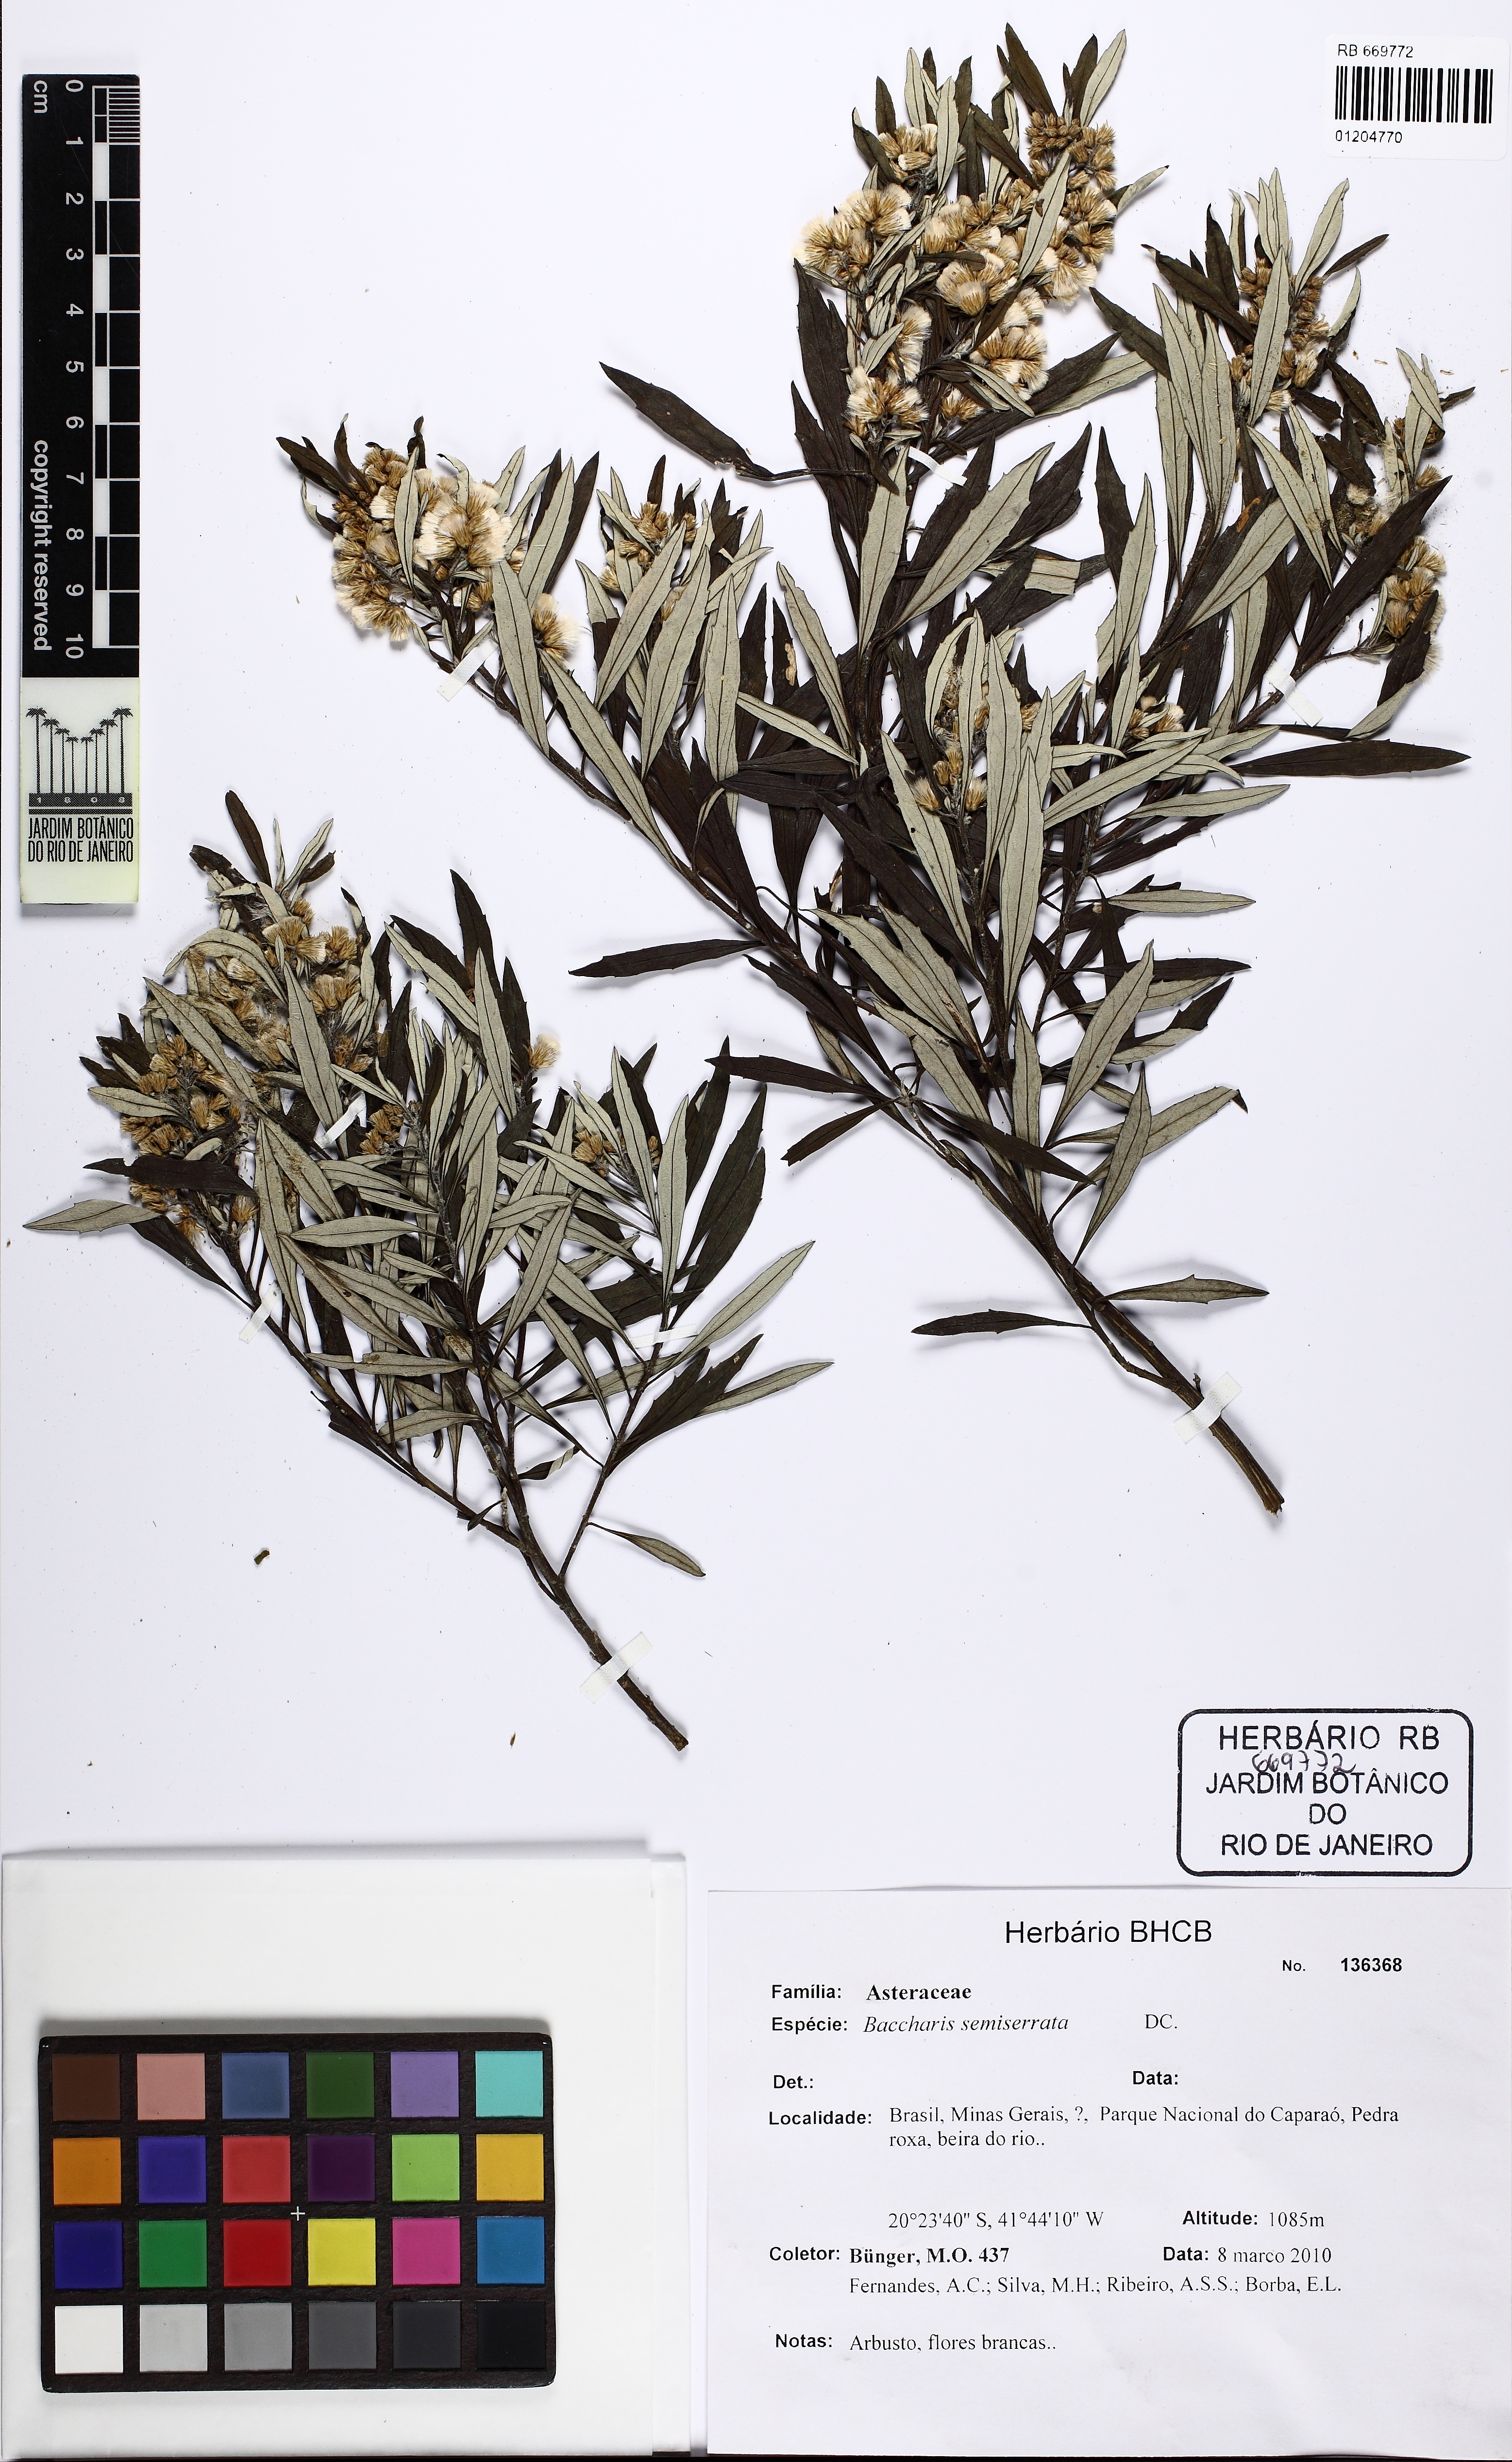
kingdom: Plantae
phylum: Tracheophyta
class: Magnoliopsida
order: Asterales
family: Asteraceae
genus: Baccharis
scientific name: Baccharis gnidiifolia
